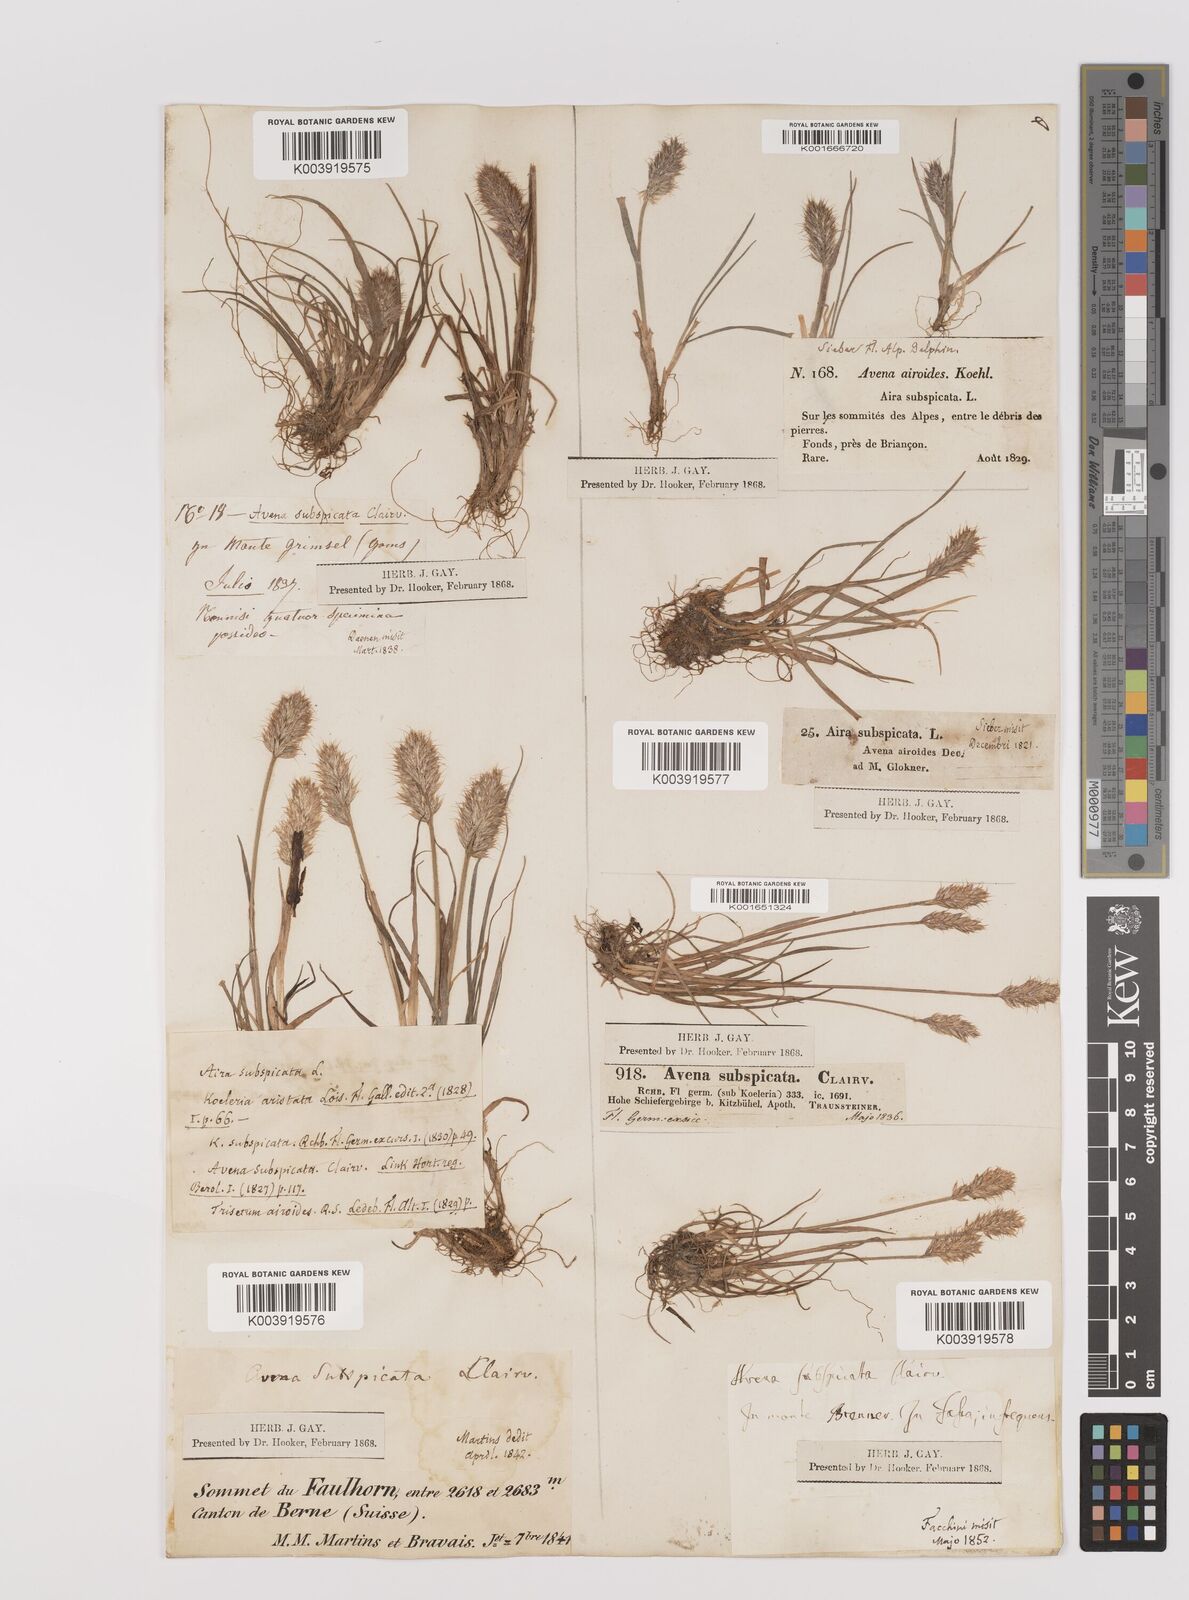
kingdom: Plantae
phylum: Tracheophyta
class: Liliopsida
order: Poales
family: Poaceae
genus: Koeleria
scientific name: Koeleria spicata
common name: Mountain trisetum
